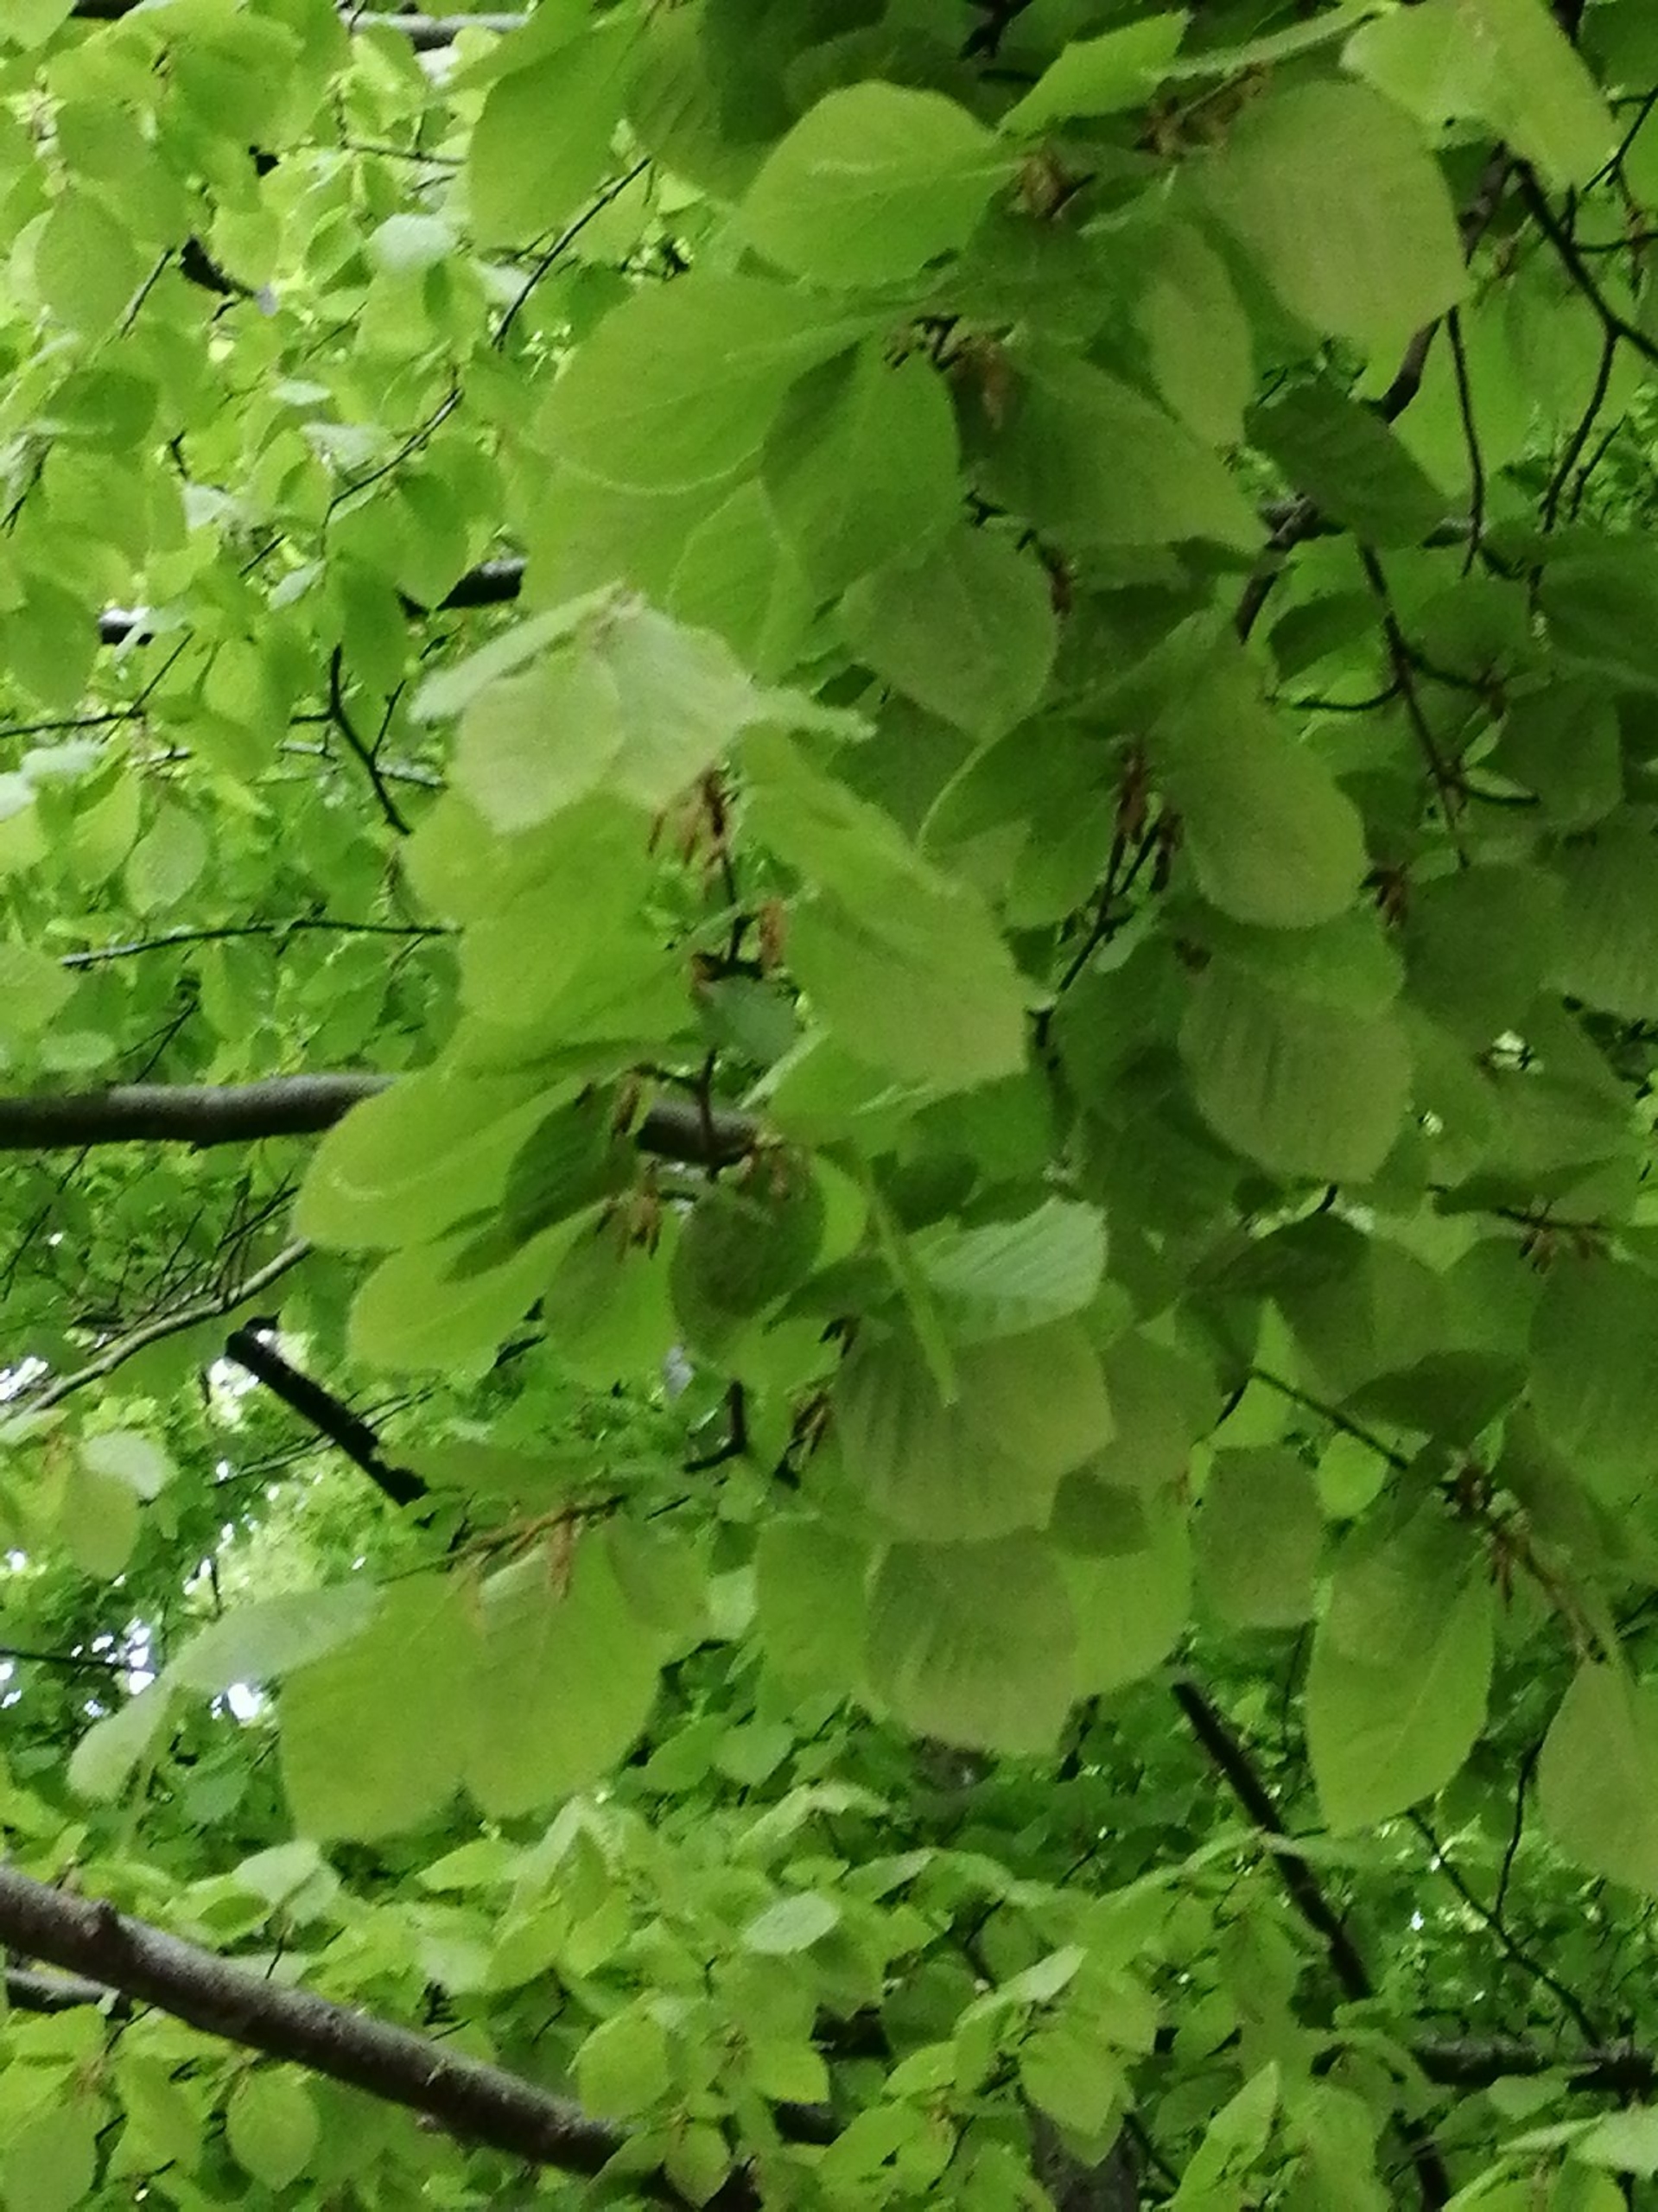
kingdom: Plantae
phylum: Tracheophyta
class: Magnoliopsida
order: Fagales
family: Fagaceae
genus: Fagus
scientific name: Fagus sylvatica
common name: Bøg
